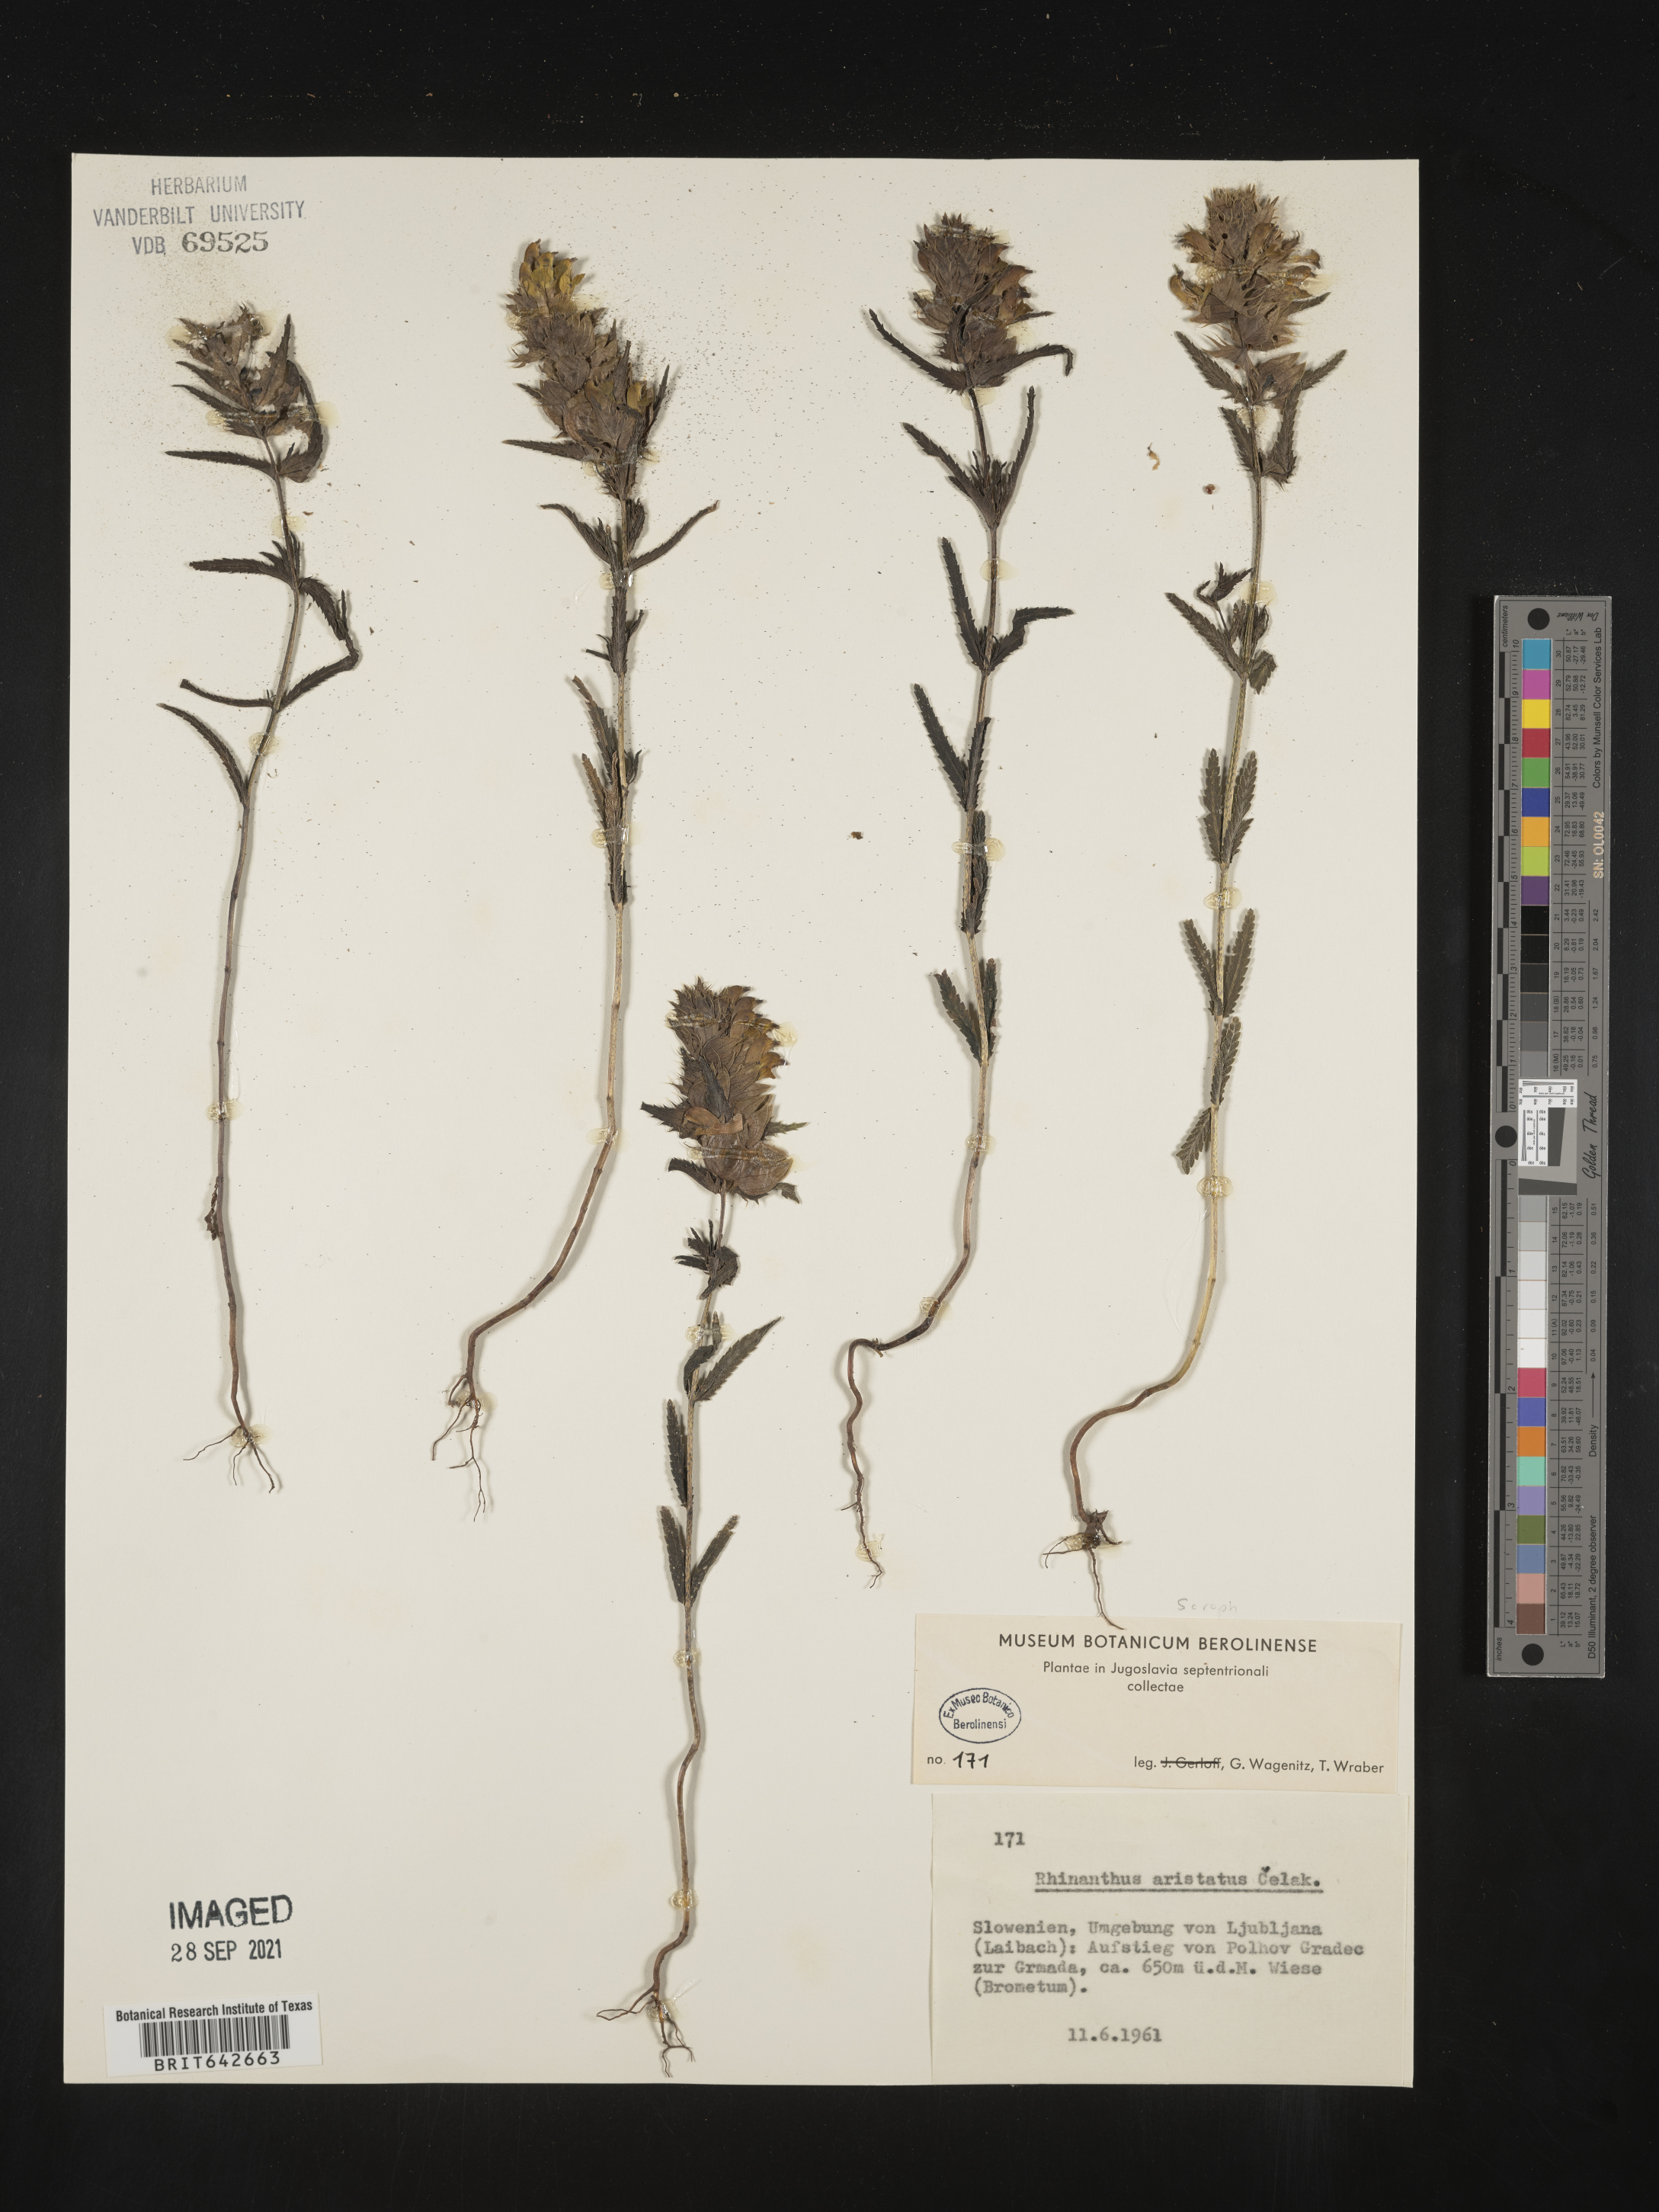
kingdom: Plantae
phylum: Tracheophyta
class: Magnoliopsida
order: Lamiales
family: Orobanchaceae
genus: Rhinanthus
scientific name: Rhinanthus
